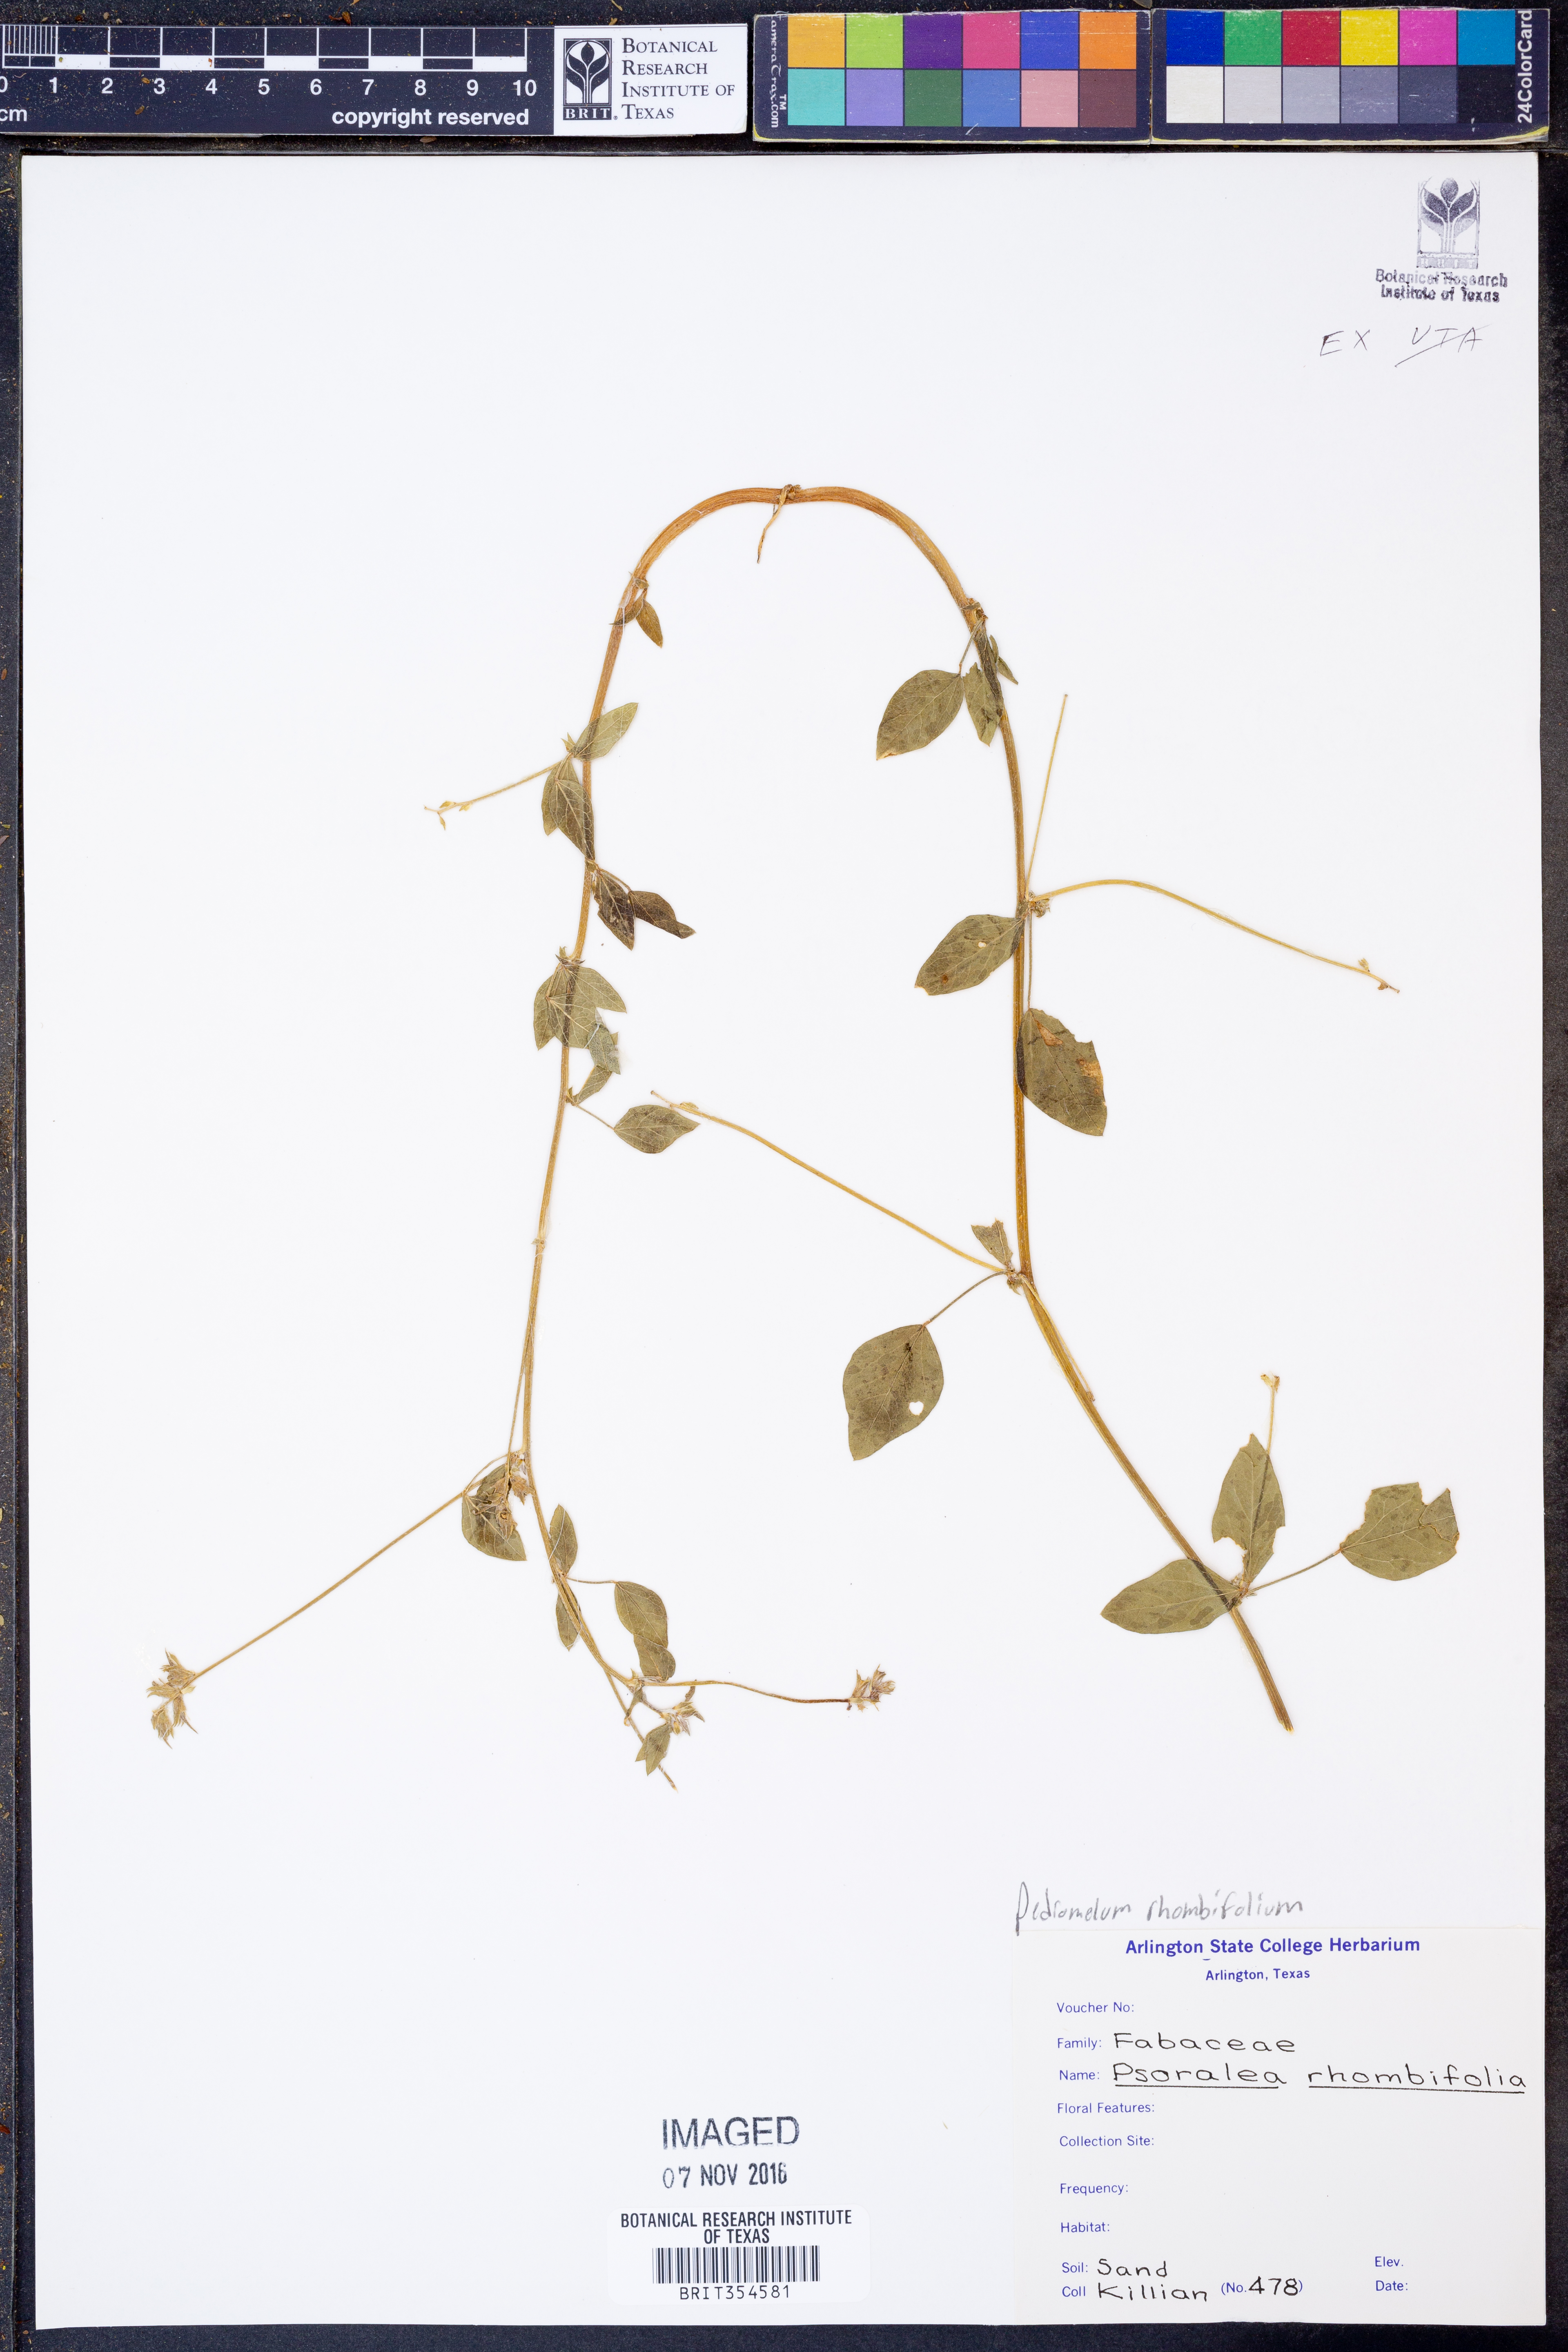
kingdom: Plantae
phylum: Tracheophyta
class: Magnoliopsida
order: Fabales
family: Fabaceae
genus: Pediomelum
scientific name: Pediomelum rhombifolium
